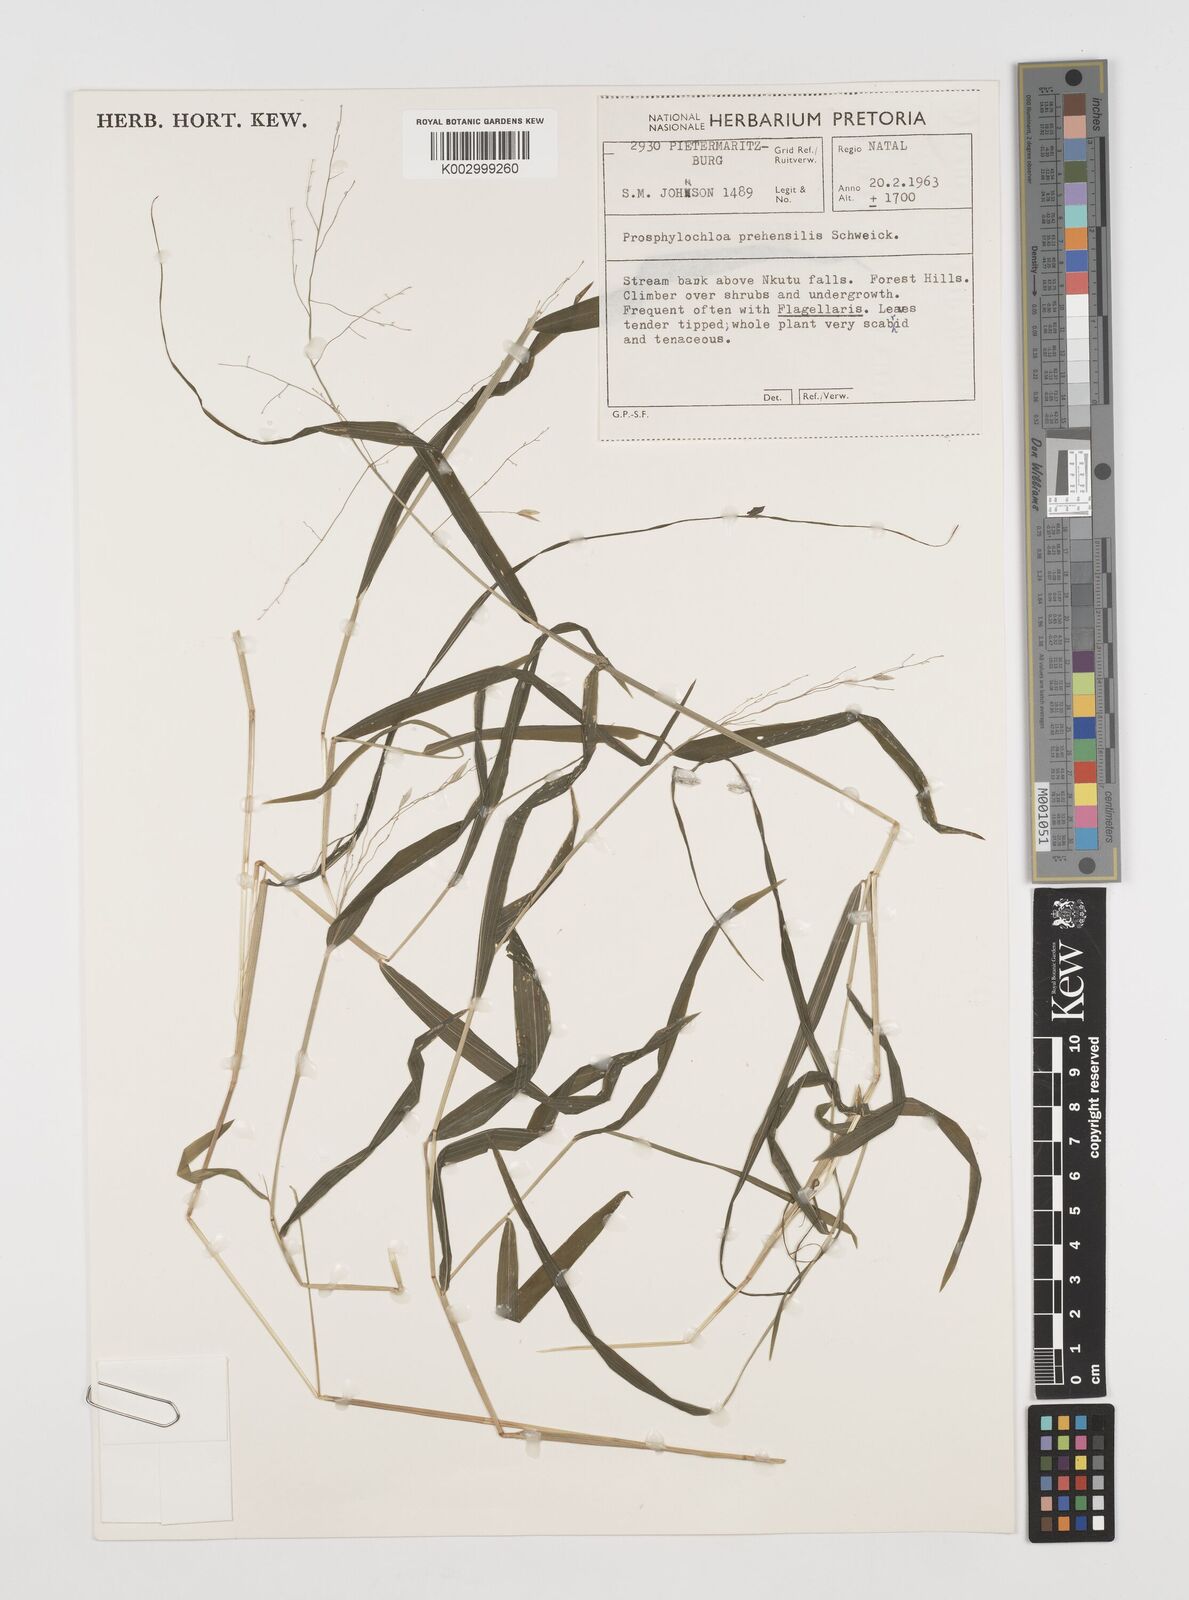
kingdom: Plantae
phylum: Tracheophyta
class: Liliopsida
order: Poales
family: Poaceae
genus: Prosphytochloa
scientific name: Prosphytochloa prehensilis
